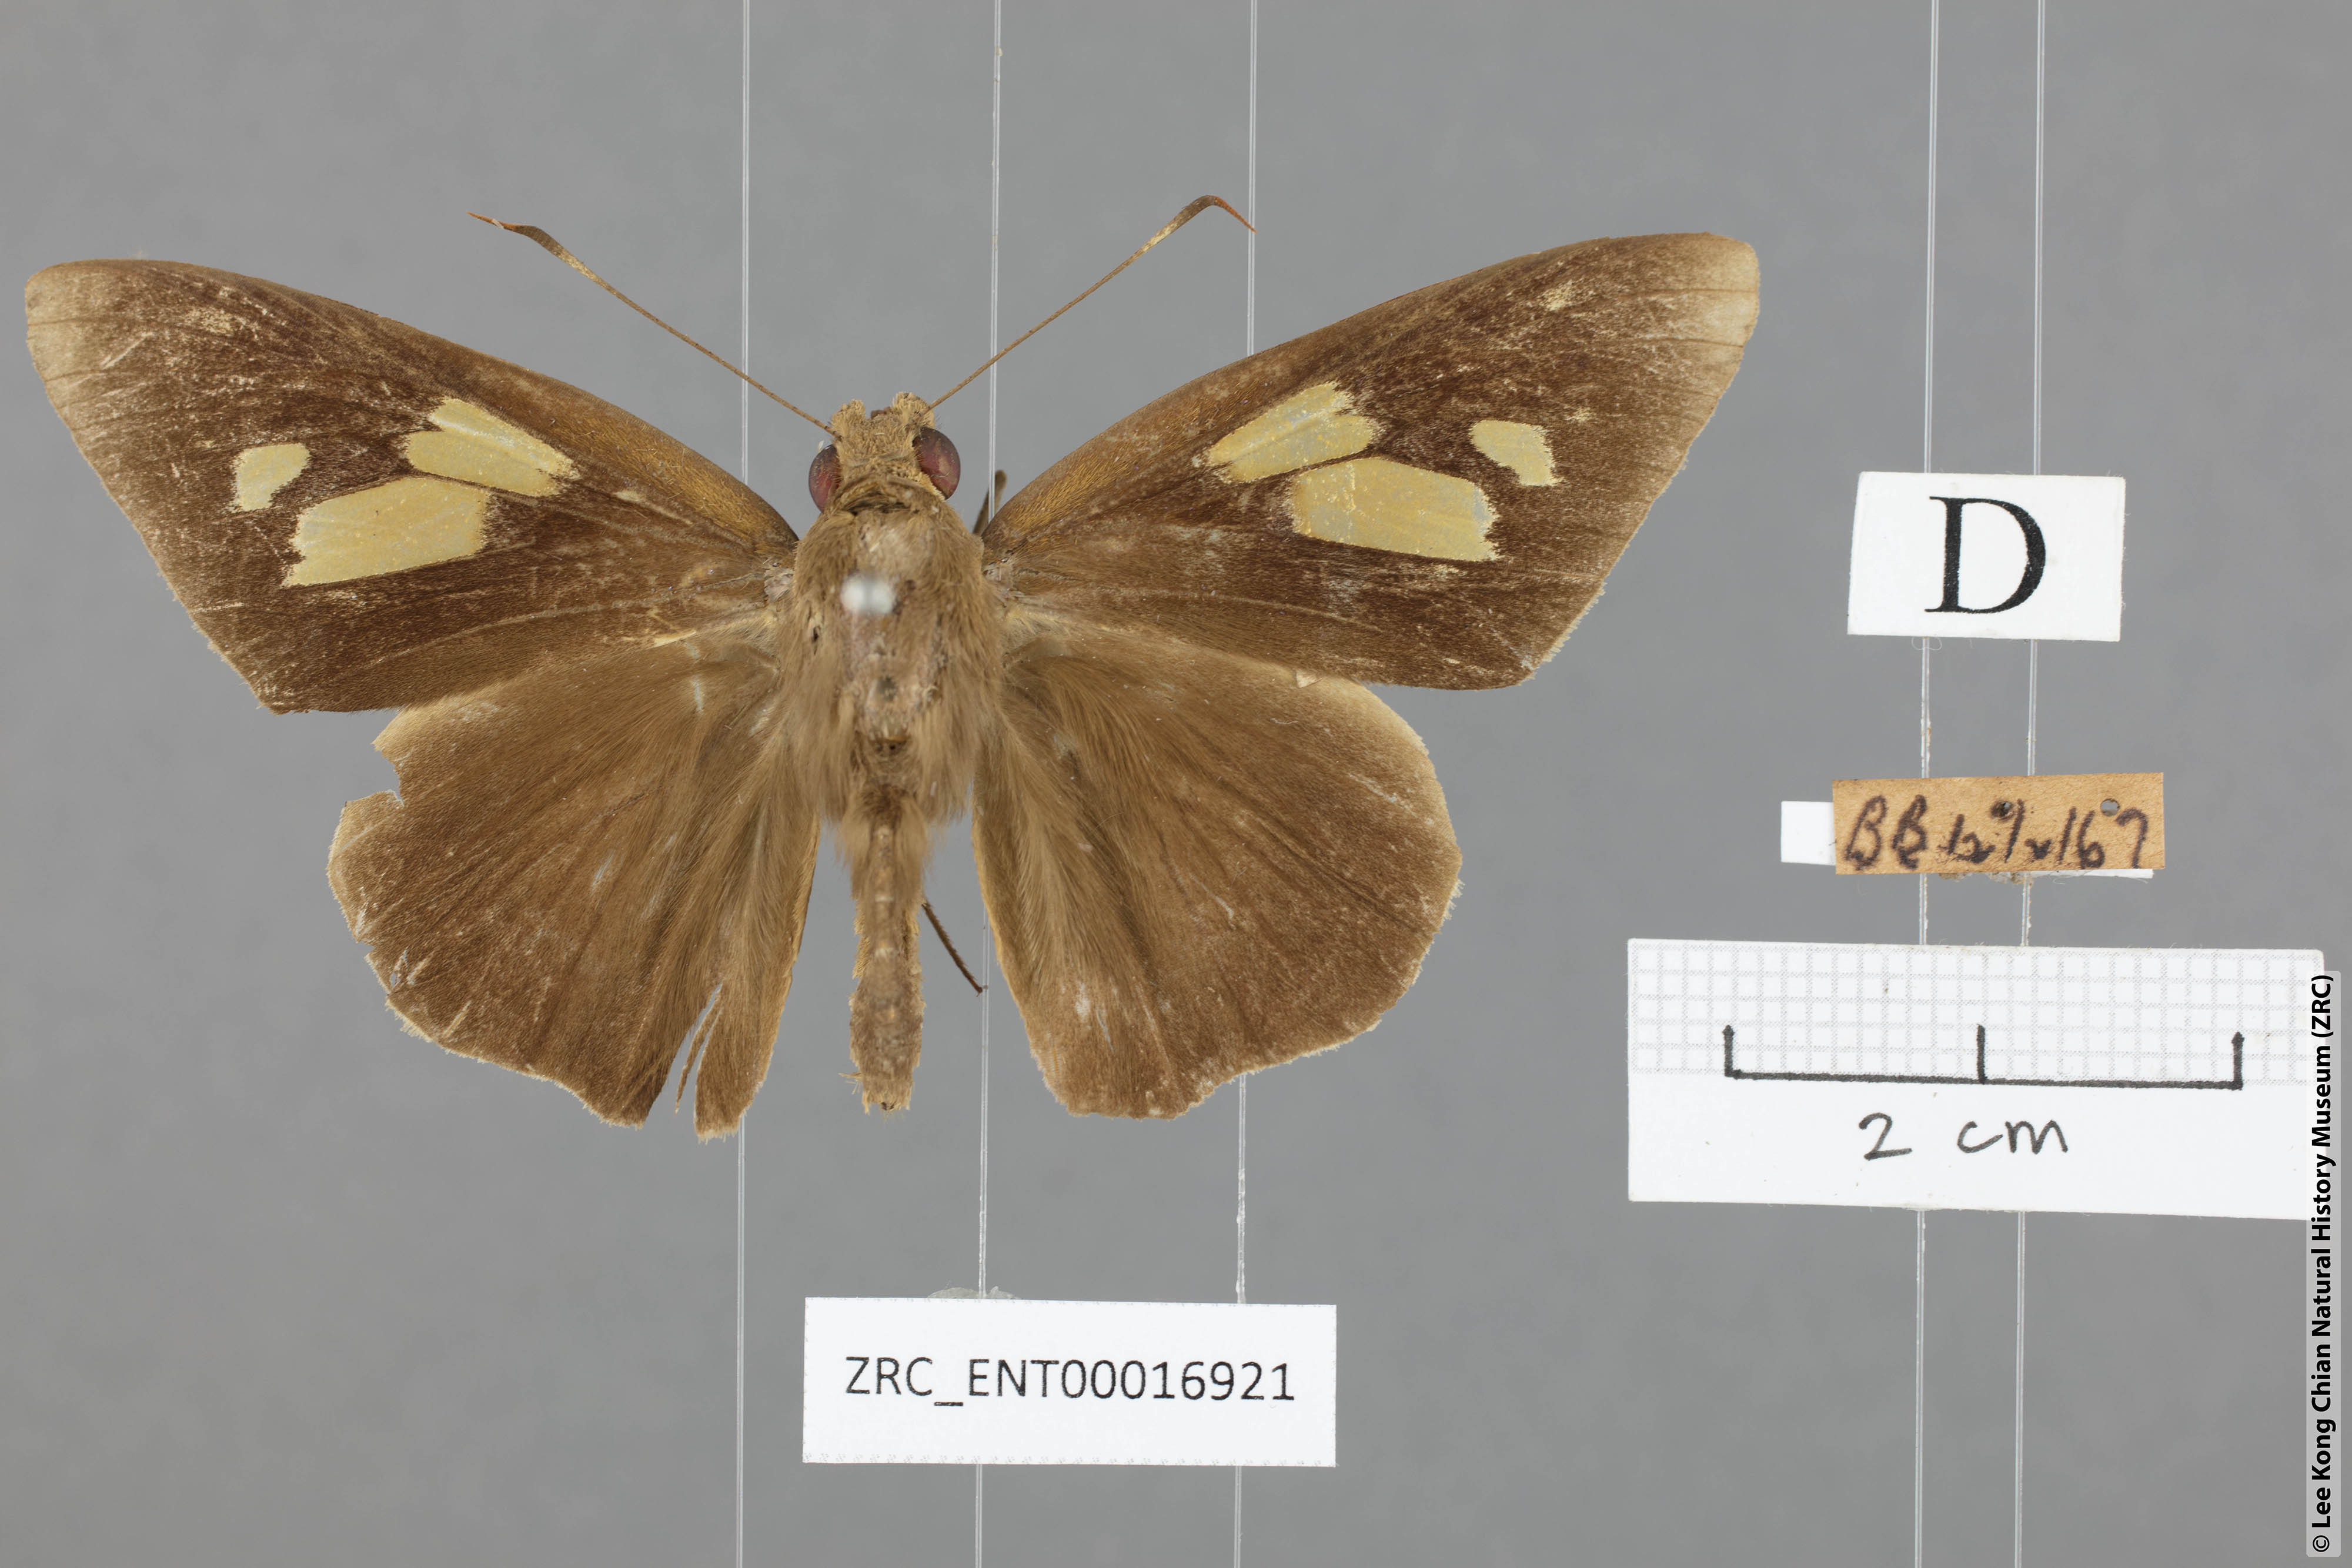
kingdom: Animalia
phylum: Arthropoda
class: Insecta
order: Lepidoptera
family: Hesperiidae
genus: Erionota
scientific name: Erionota thrax
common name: Banana skipper
